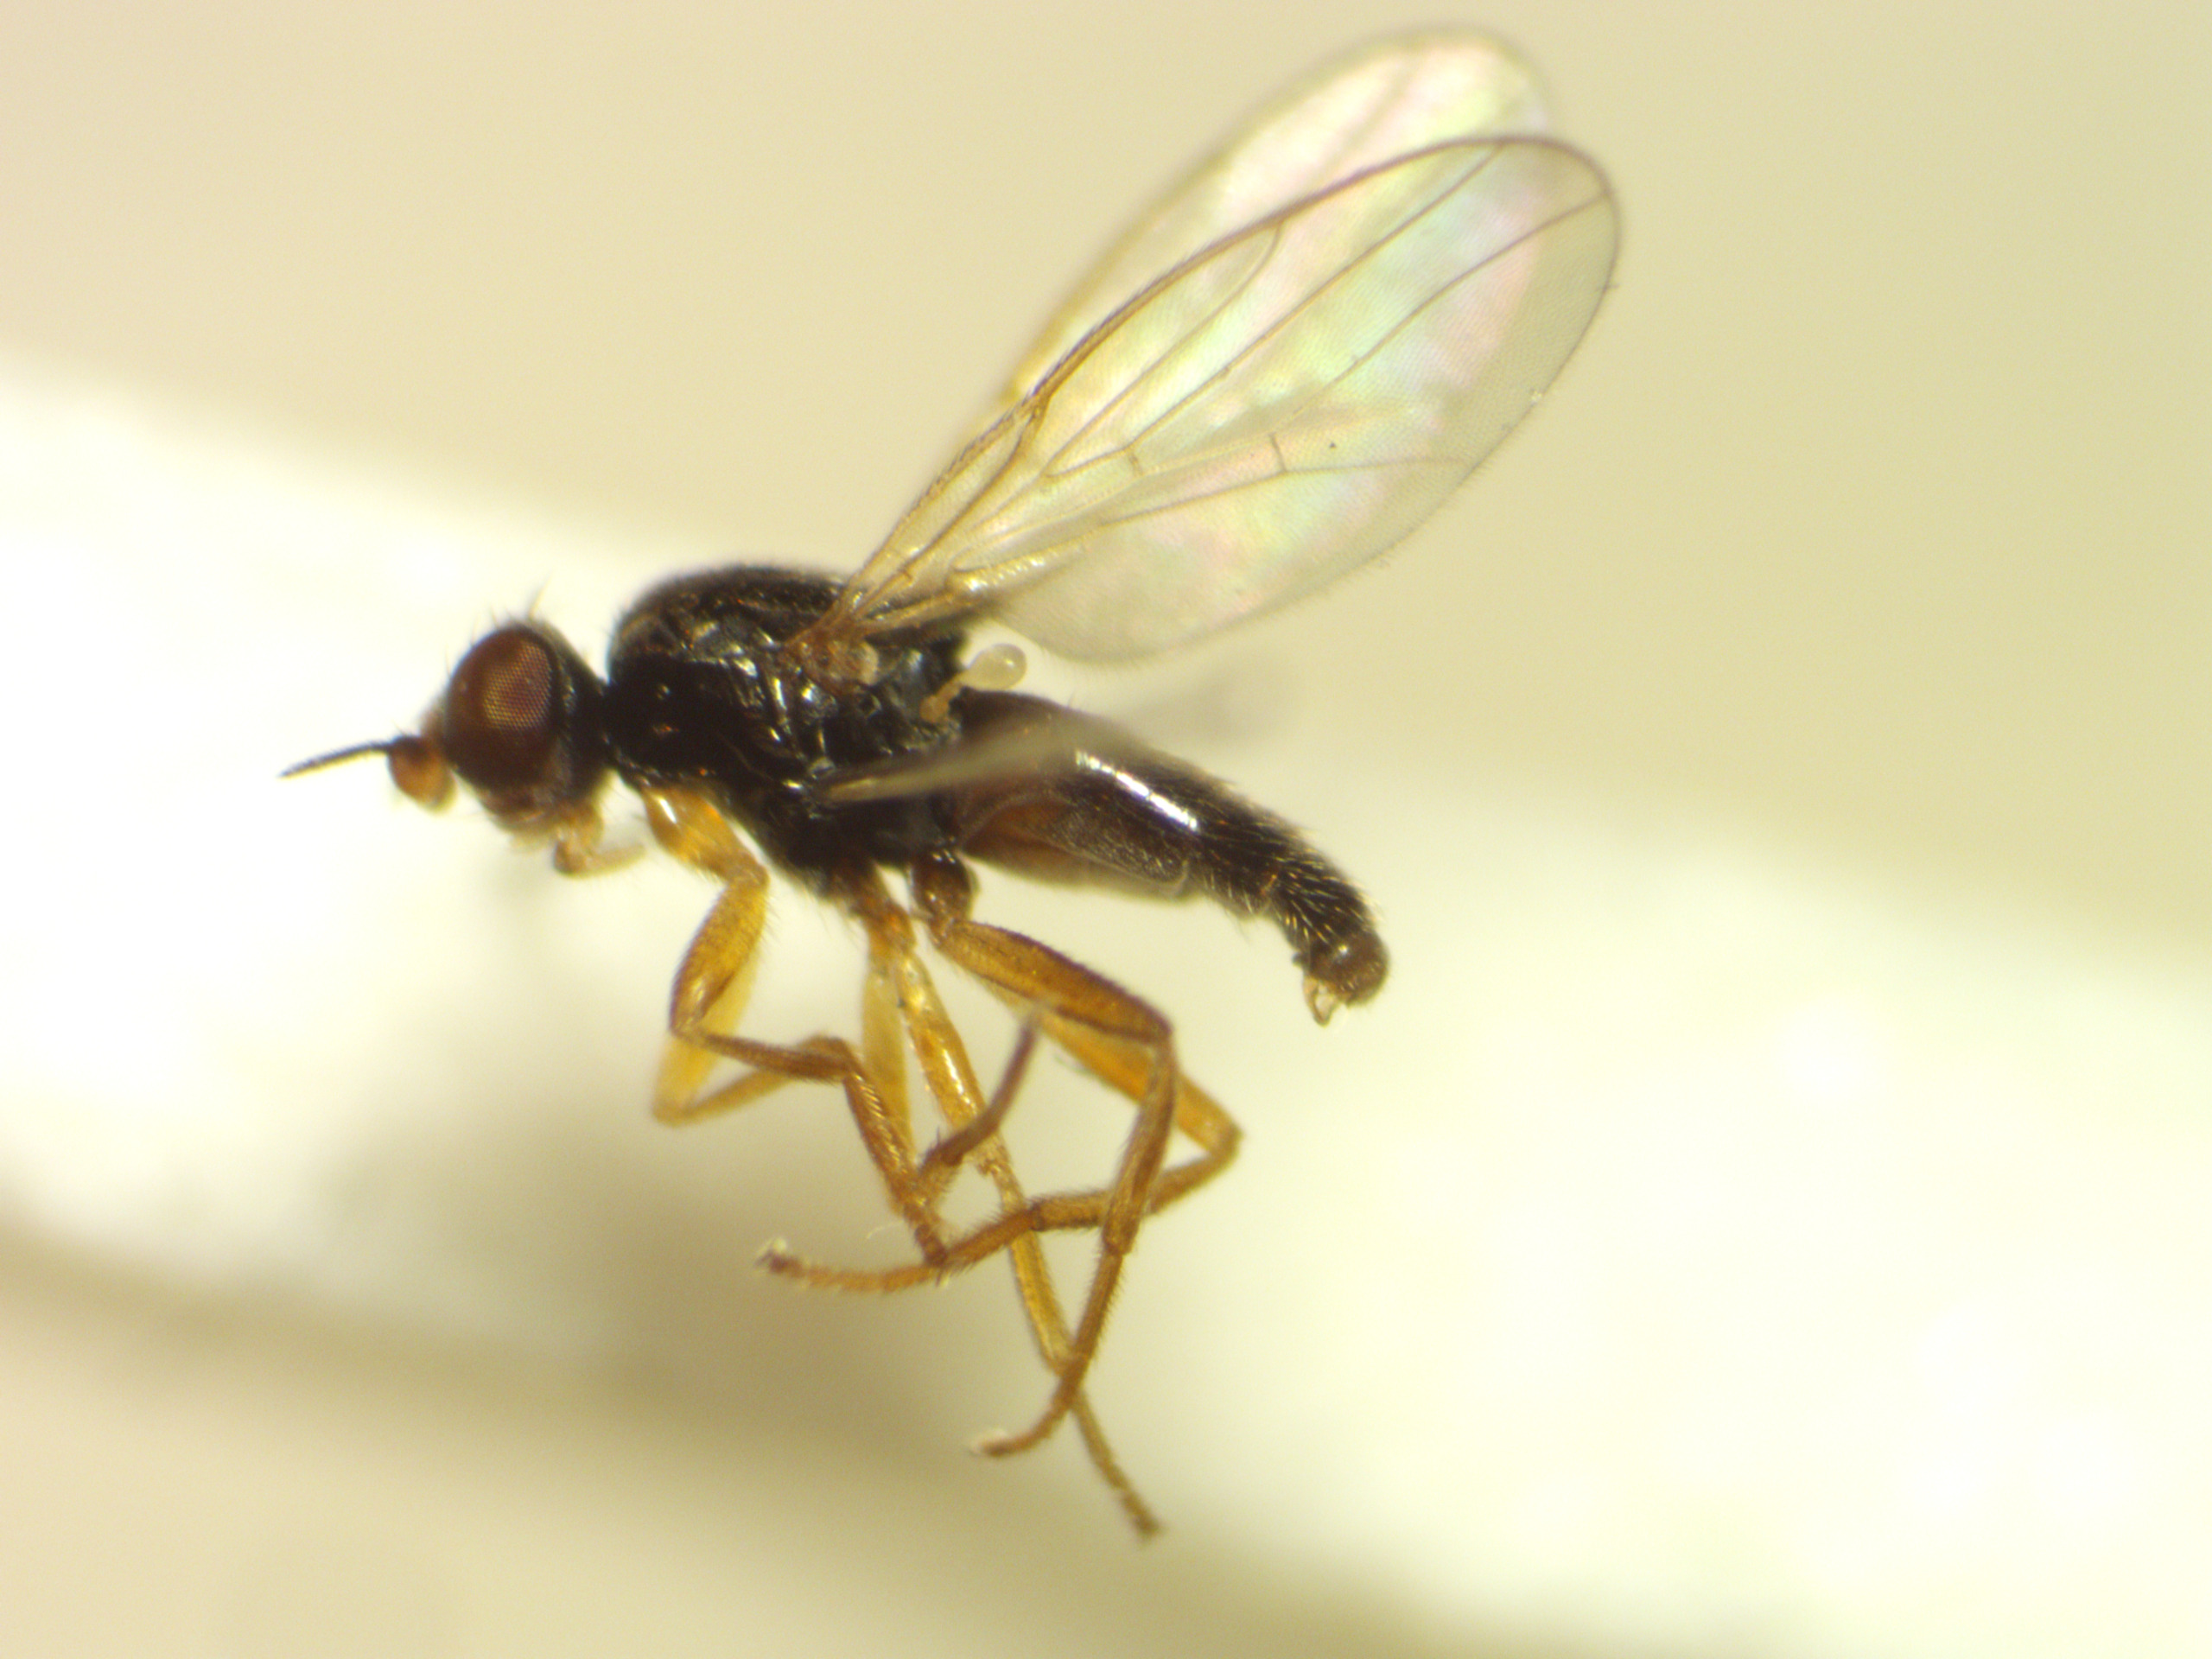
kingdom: Animalia
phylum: Arthropoda
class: Insecta
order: Diptera
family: Chloropidae
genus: Elachiptera
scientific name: Elachiptera cornuta
